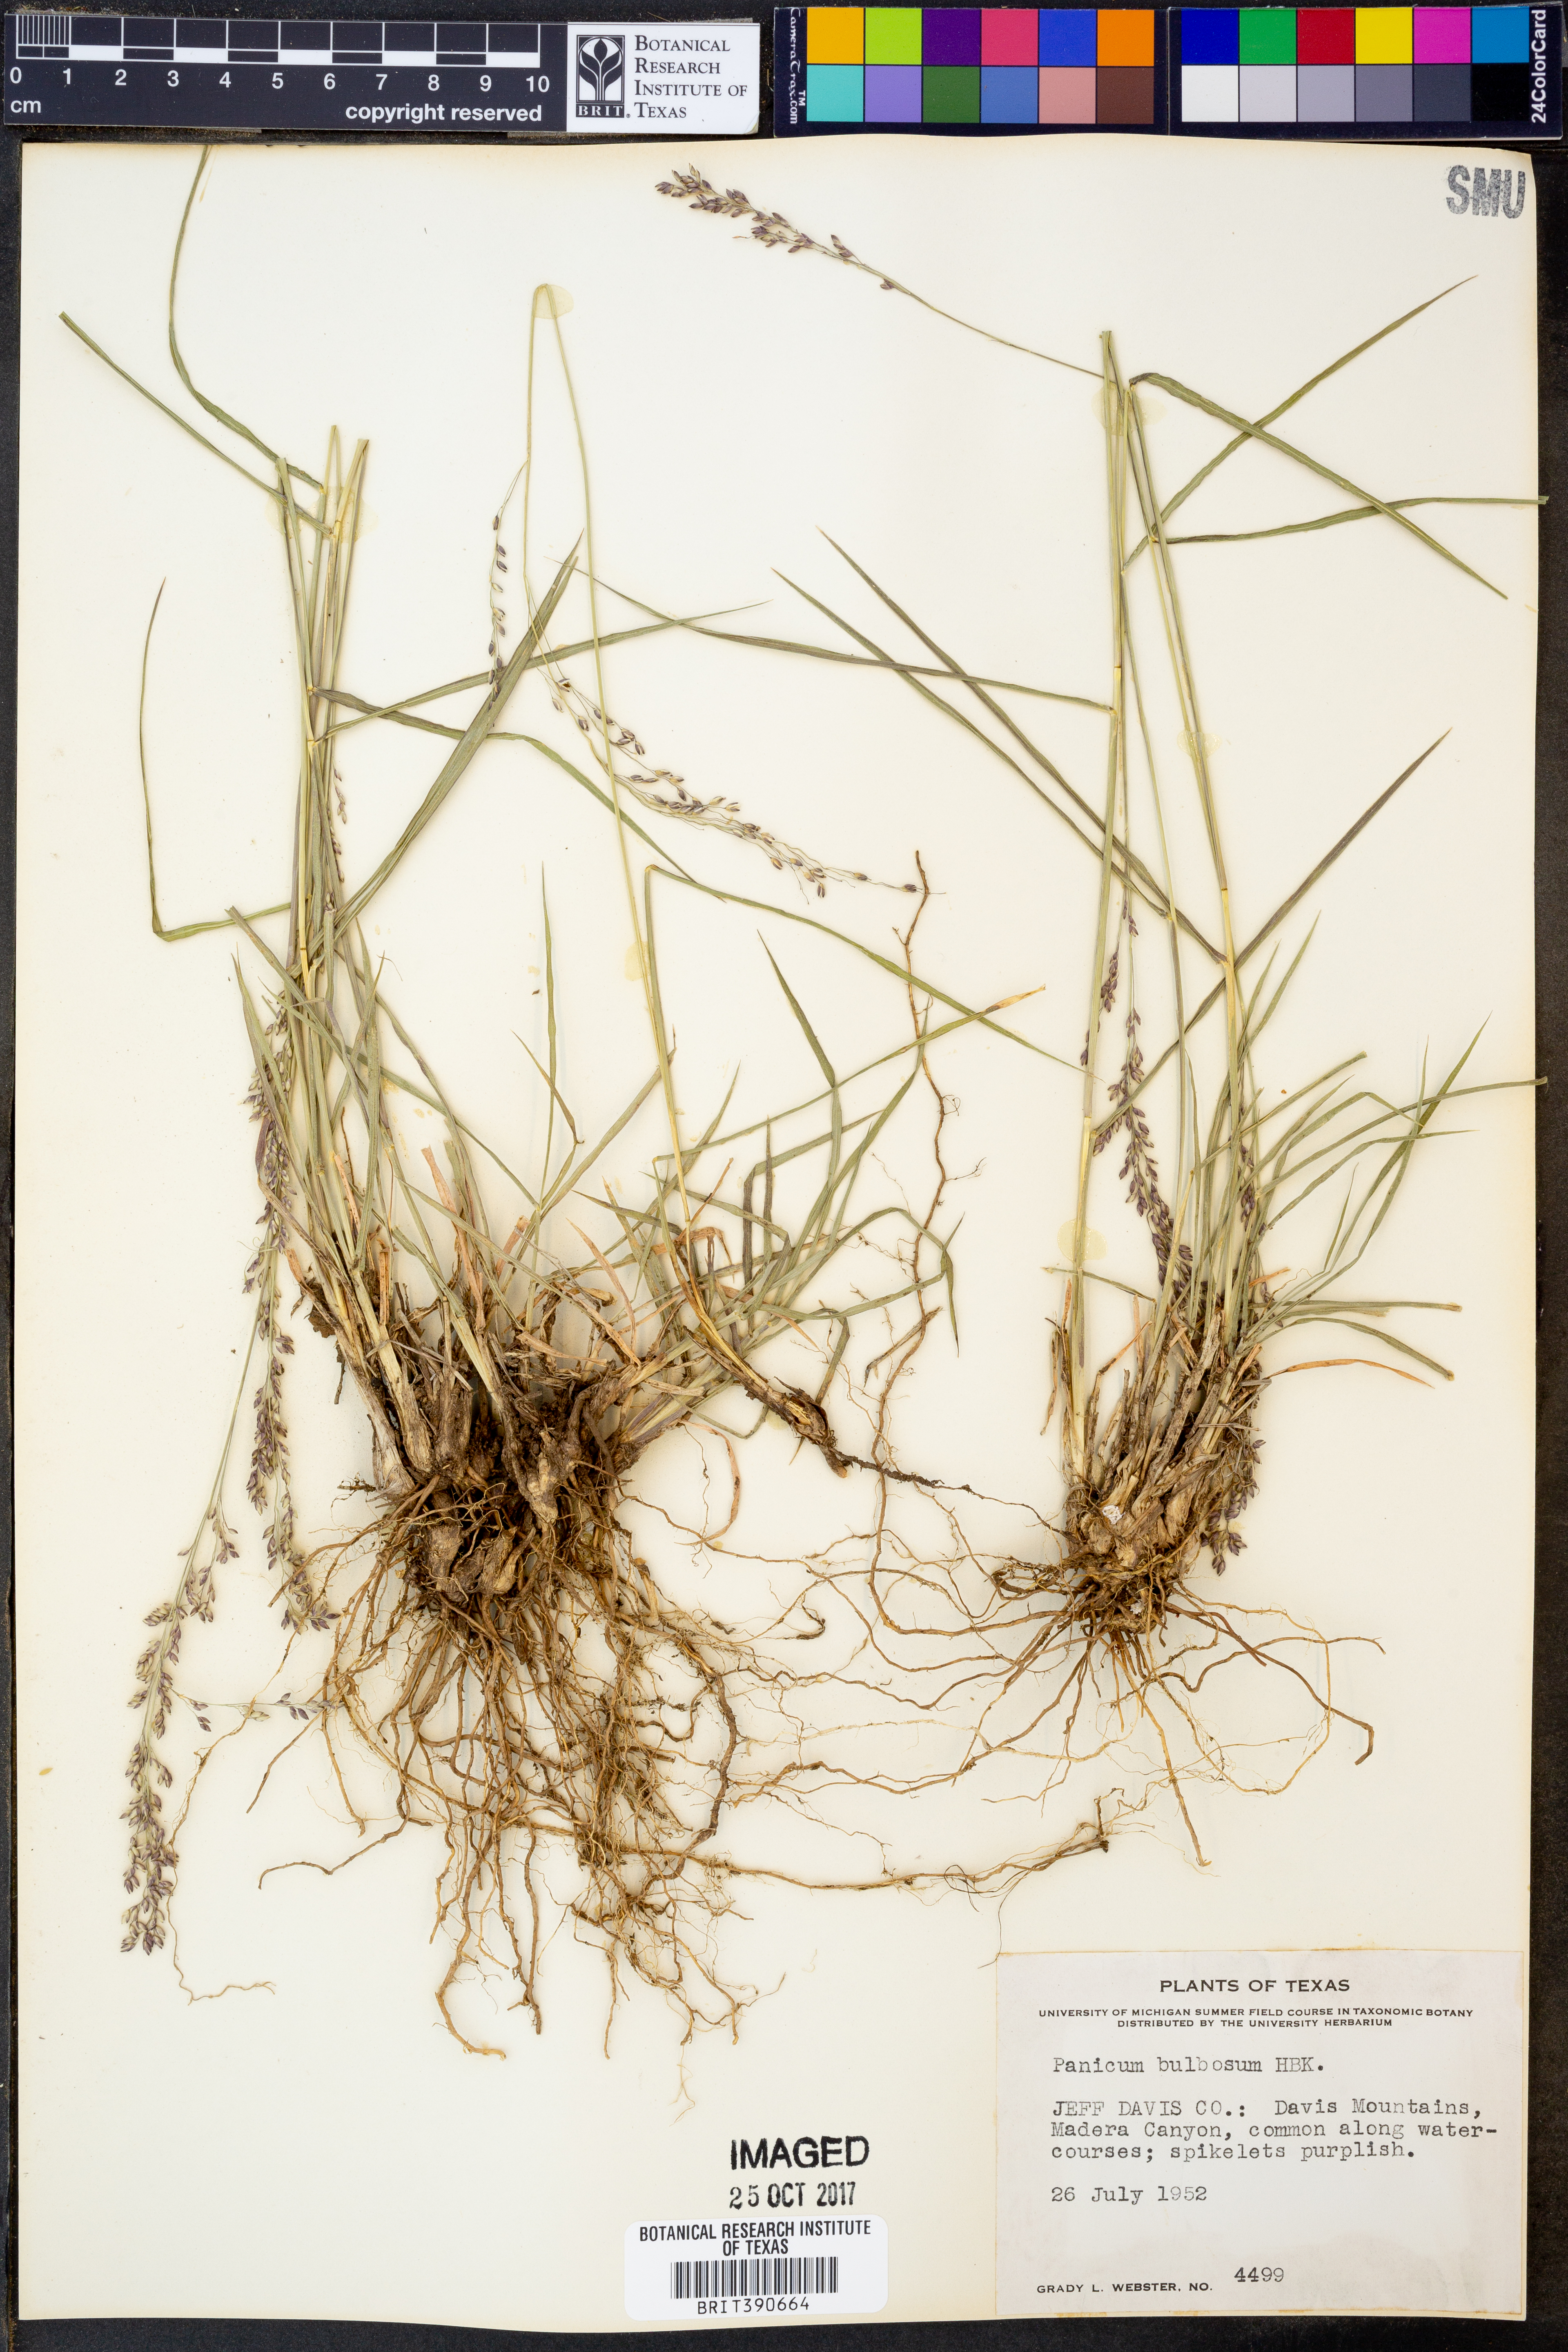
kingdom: Plantae
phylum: Tracheophyta
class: Liliopsida
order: Poales
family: Poaceae
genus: Zuloagaea
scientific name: Zuloagaea bulbosa
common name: Canyon panic grass
